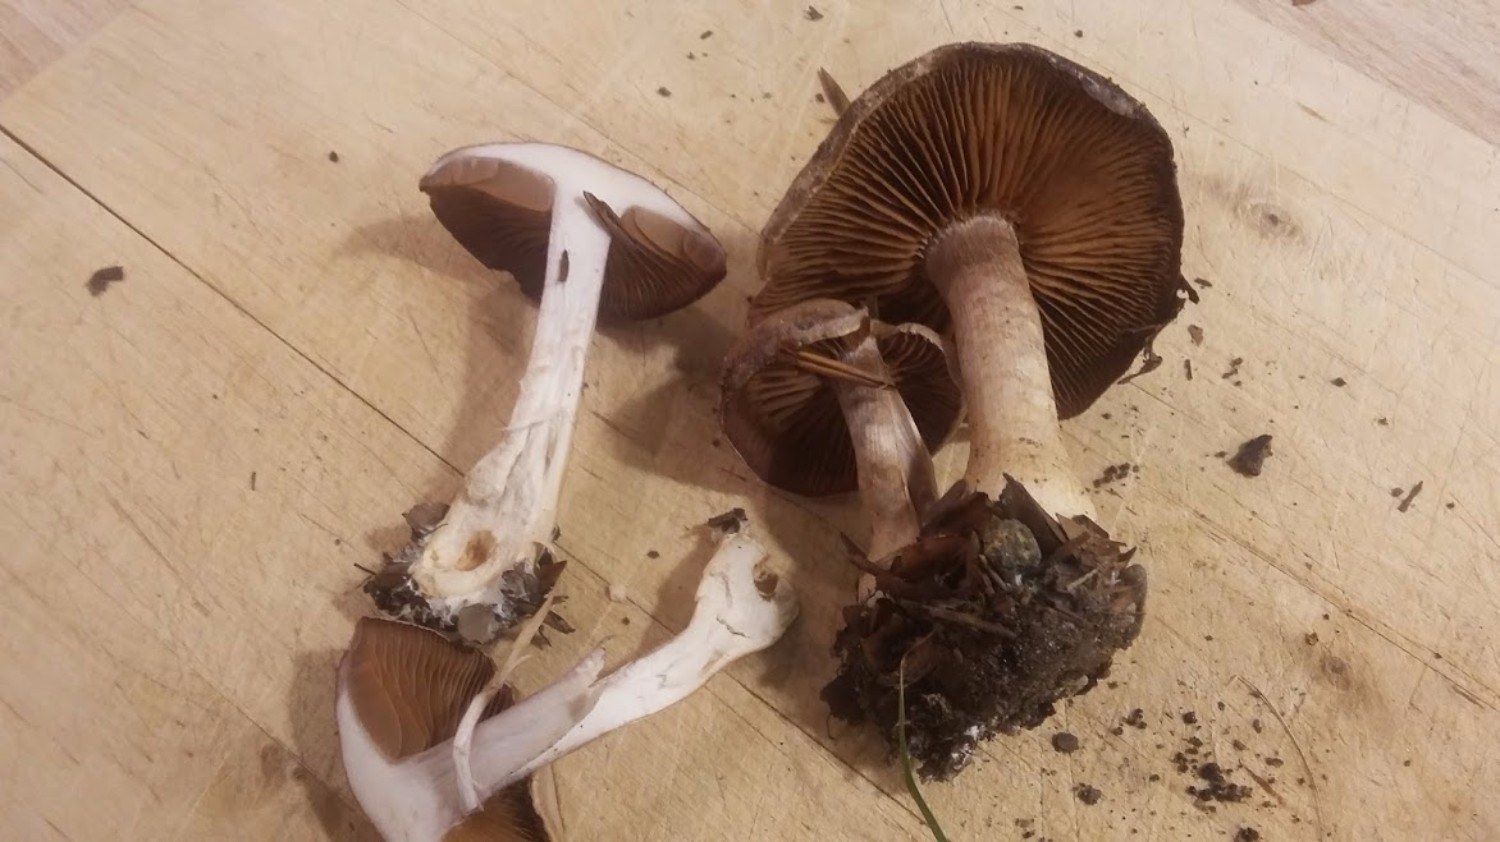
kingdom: Fungi
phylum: Basidiomycota
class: Agaricomycetes
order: Agaricales
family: Cortinariaceae
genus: Cortinarius
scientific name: Cortinarius
